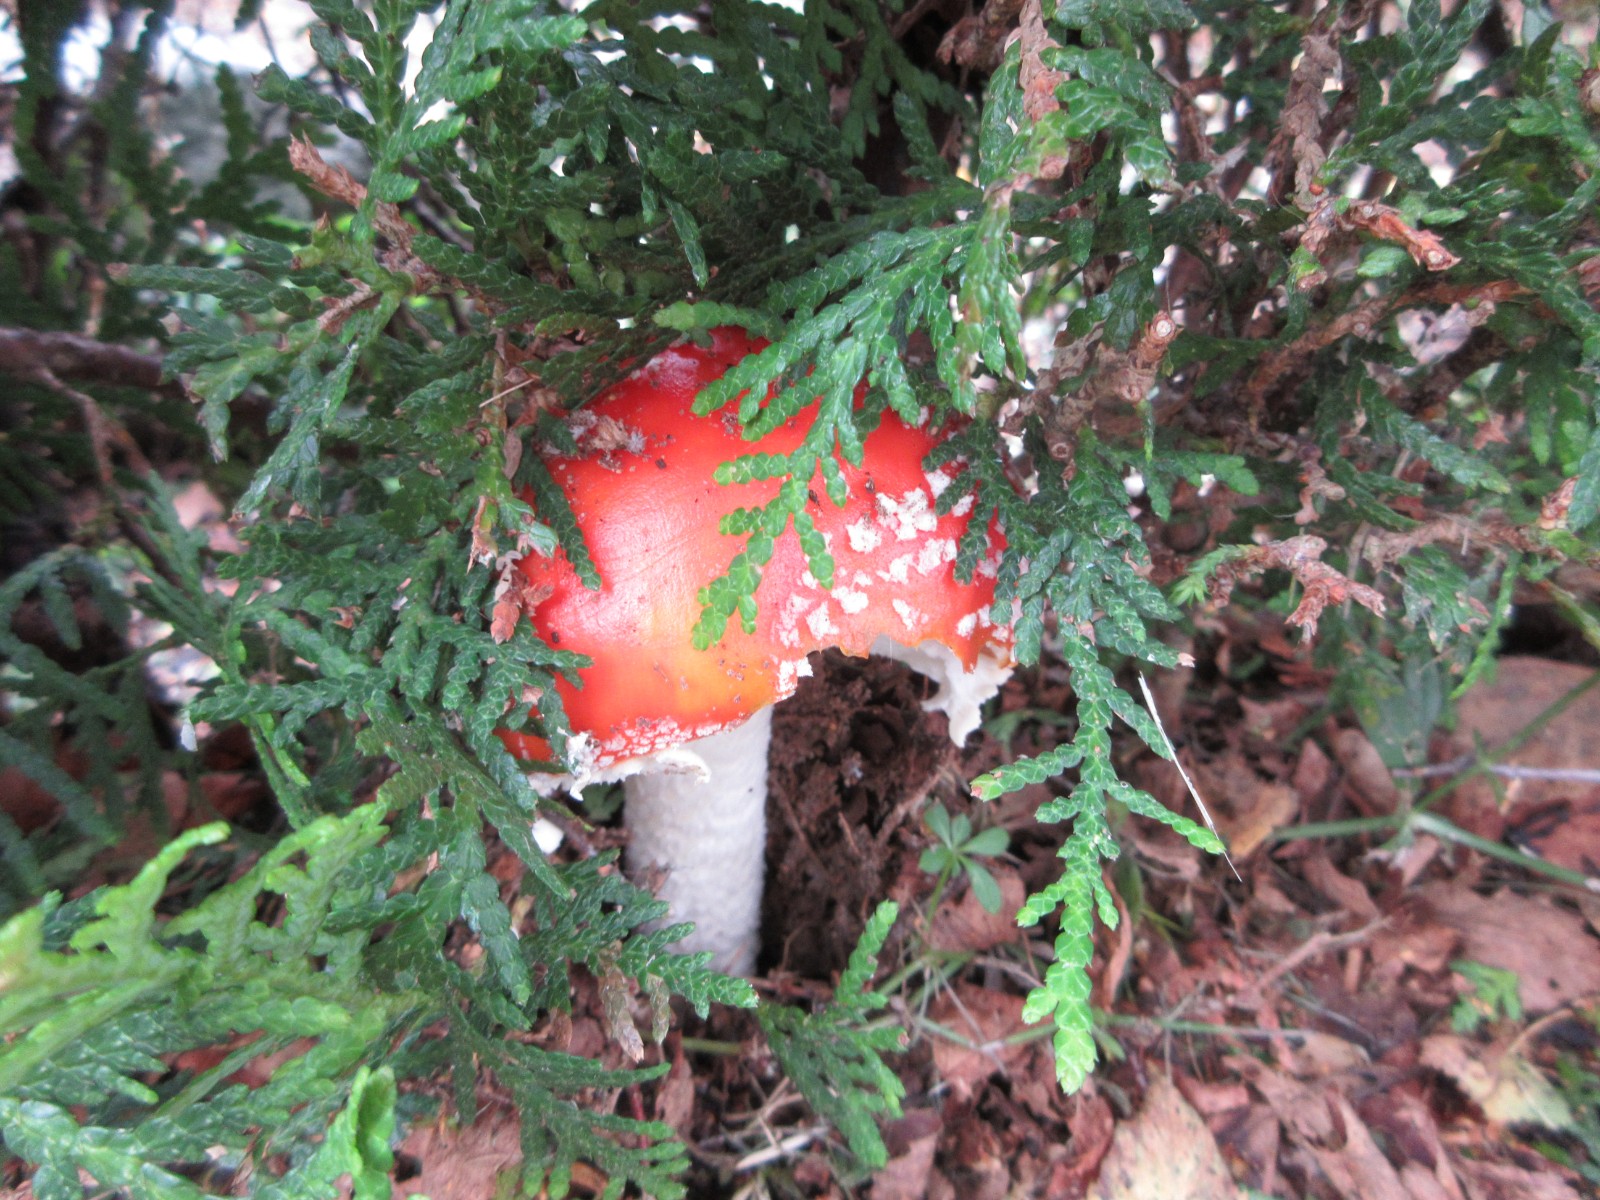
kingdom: Fungi
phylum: Basidiomycota
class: Agaricomycetes
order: Agaricales
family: Amanitaceae
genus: Amanita
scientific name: Amanita muscaria
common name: rød fluesvamp
